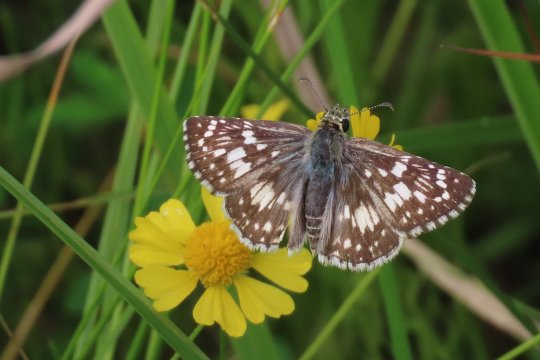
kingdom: Animalia
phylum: Arthropoda
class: Insecta
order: Lepidoptera
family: Hesperiidae
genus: Pyrgus
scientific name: Pyrgus communis
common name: Common Checkered-Skipper
